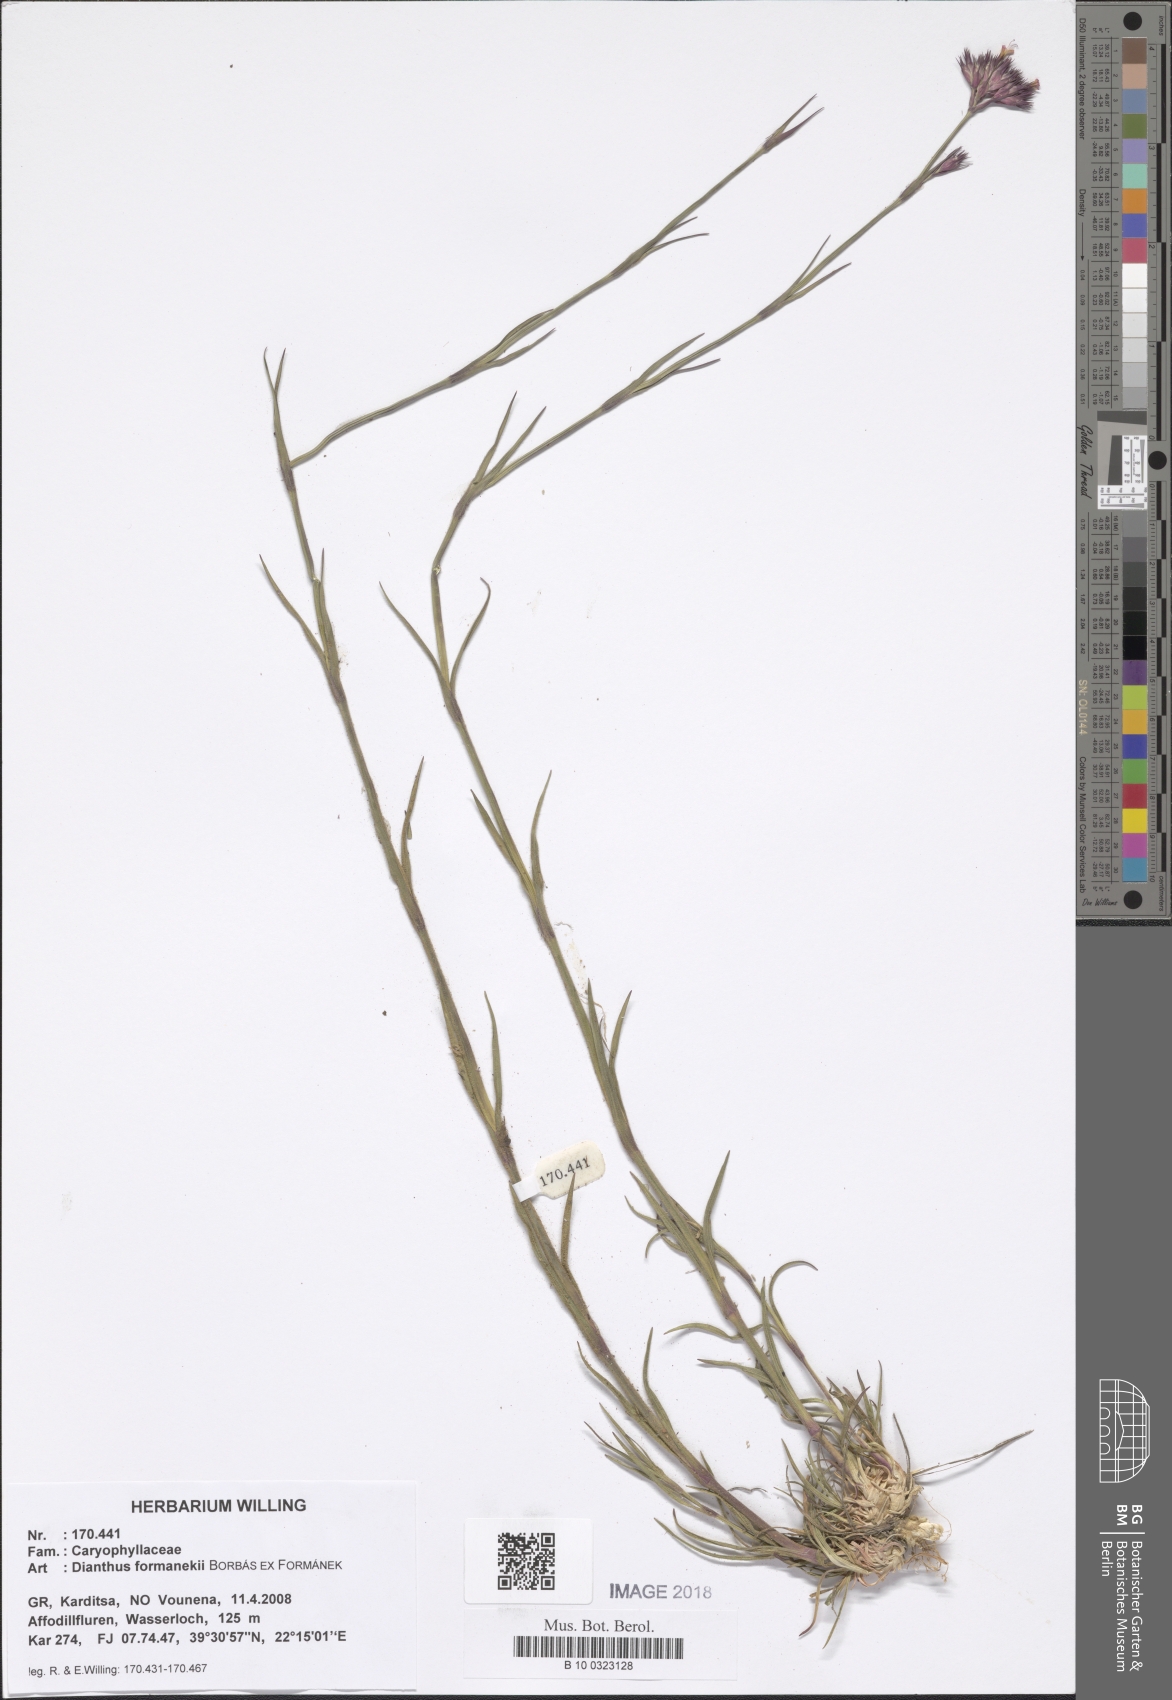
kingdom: Plantae
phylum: Tracheophyta
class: Magnoliopsida
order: Caryophyllales
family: Caryophyllaceae
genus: Dianthus
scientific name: Dianthus formanekii
